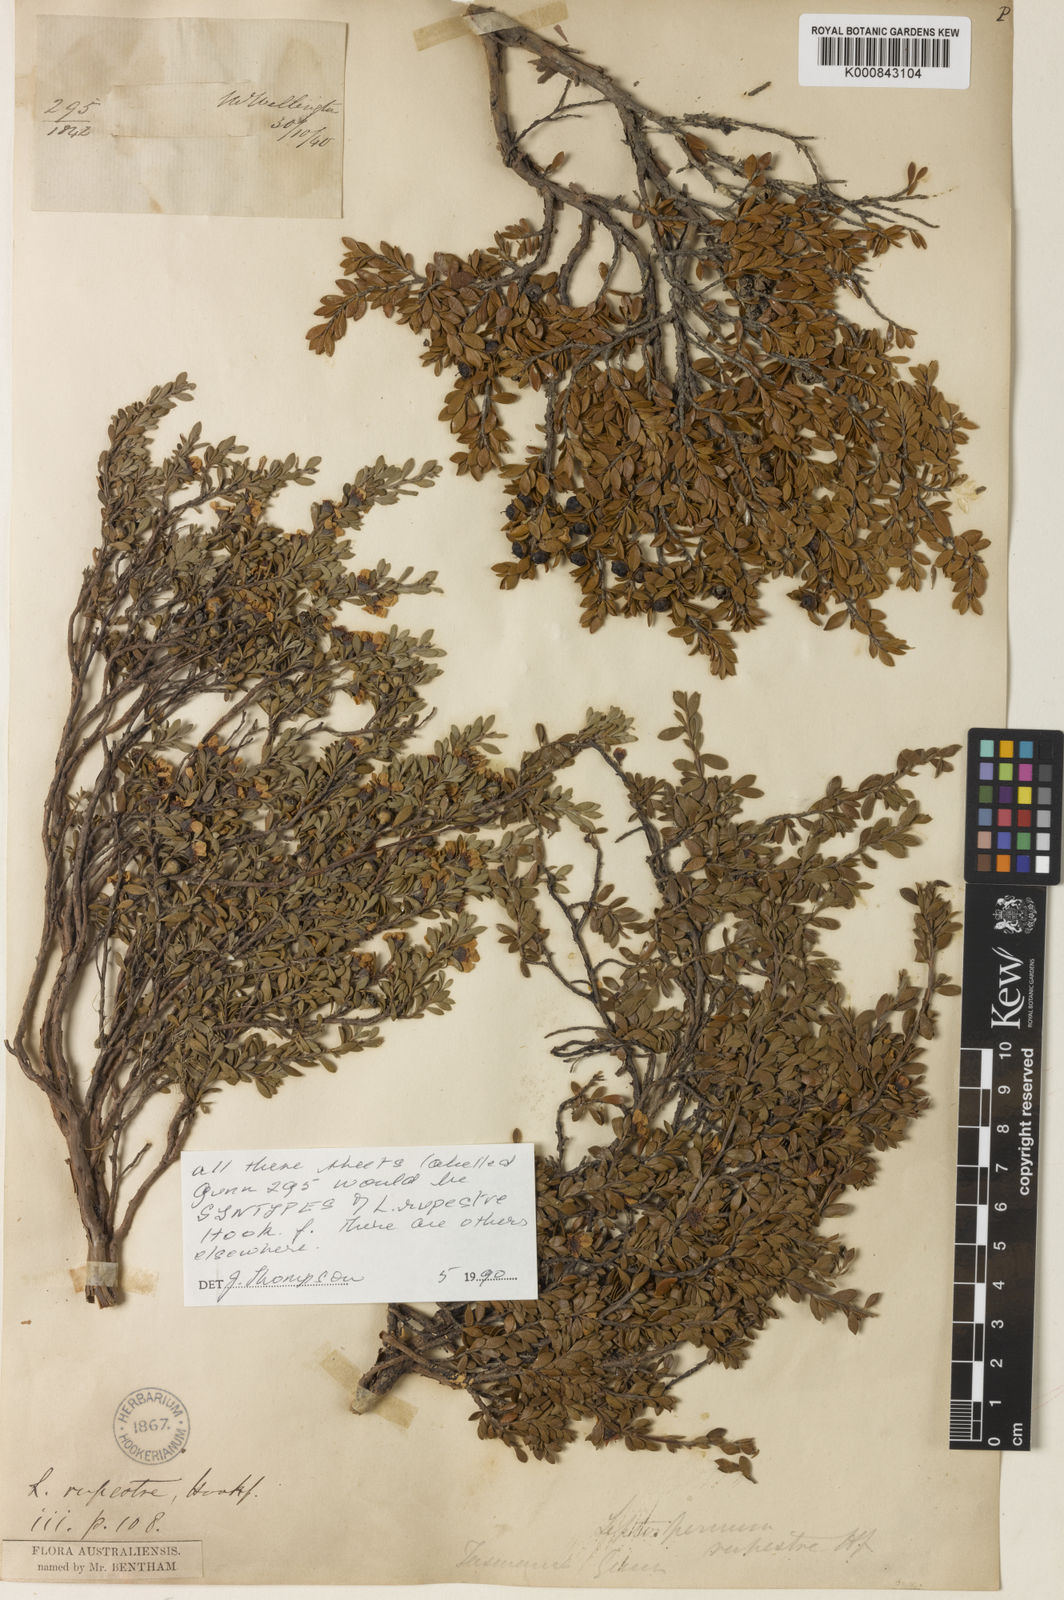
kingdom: Plantae
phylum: Tracheophyta
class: Magnoliopsida
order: Myrtales
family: Myrtaceae
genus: Leptospermum
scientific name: Leptospermum rupestre
